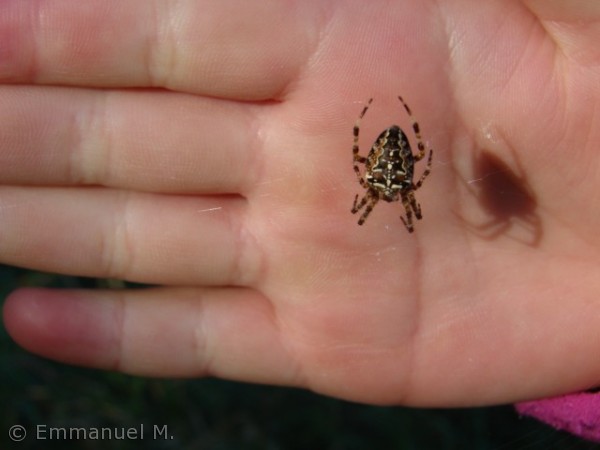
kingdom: Animalia
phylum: Arthropoda
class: Arachnida
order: Araneae
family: Araneidae
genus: Araneus
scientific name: Araneus diadematus
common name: Korsedderkop
